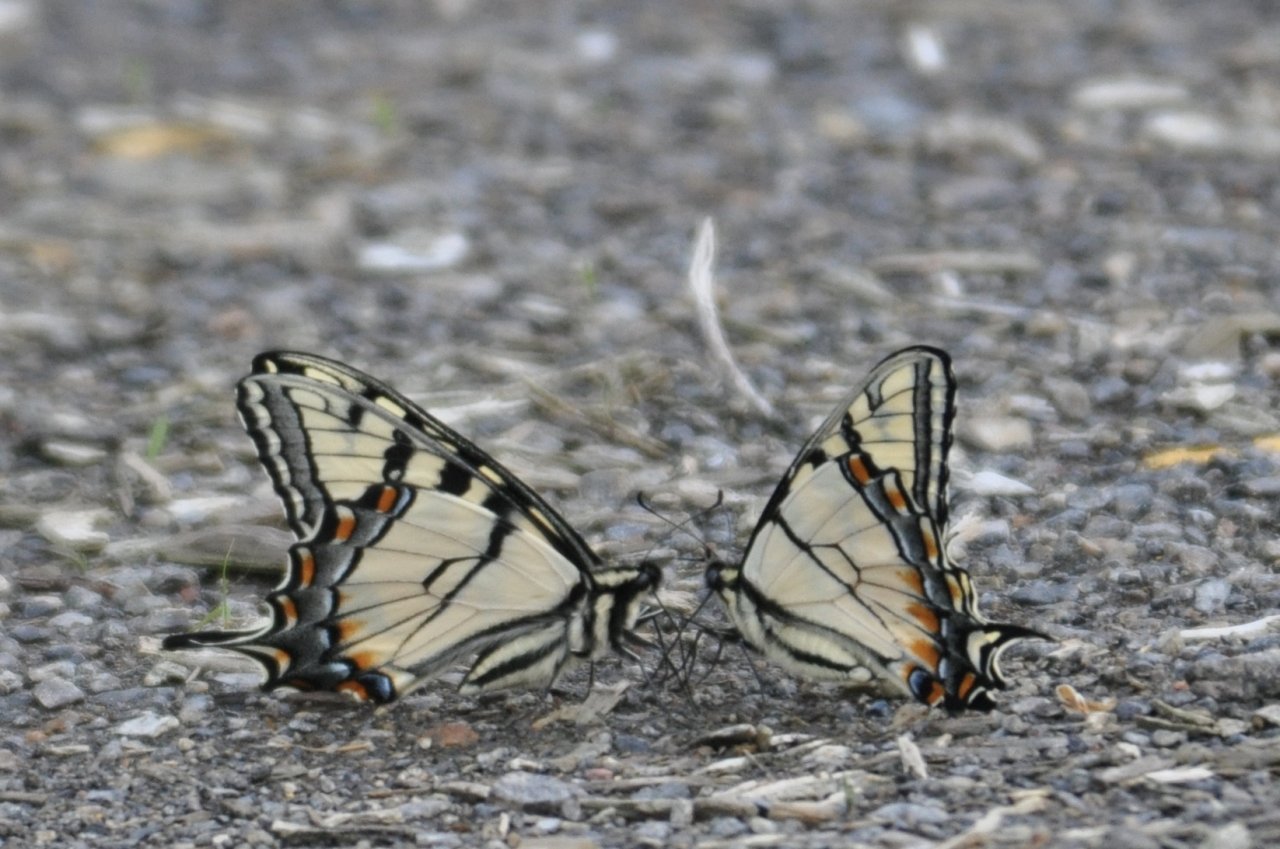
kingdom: Animalia
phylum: Arthropoda
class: Insecta
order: Lepidoptera
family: Papilionidae
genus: Pterourus
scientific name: Pterourus appalachiensis
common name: Appalachian Tiger Swallowtail
